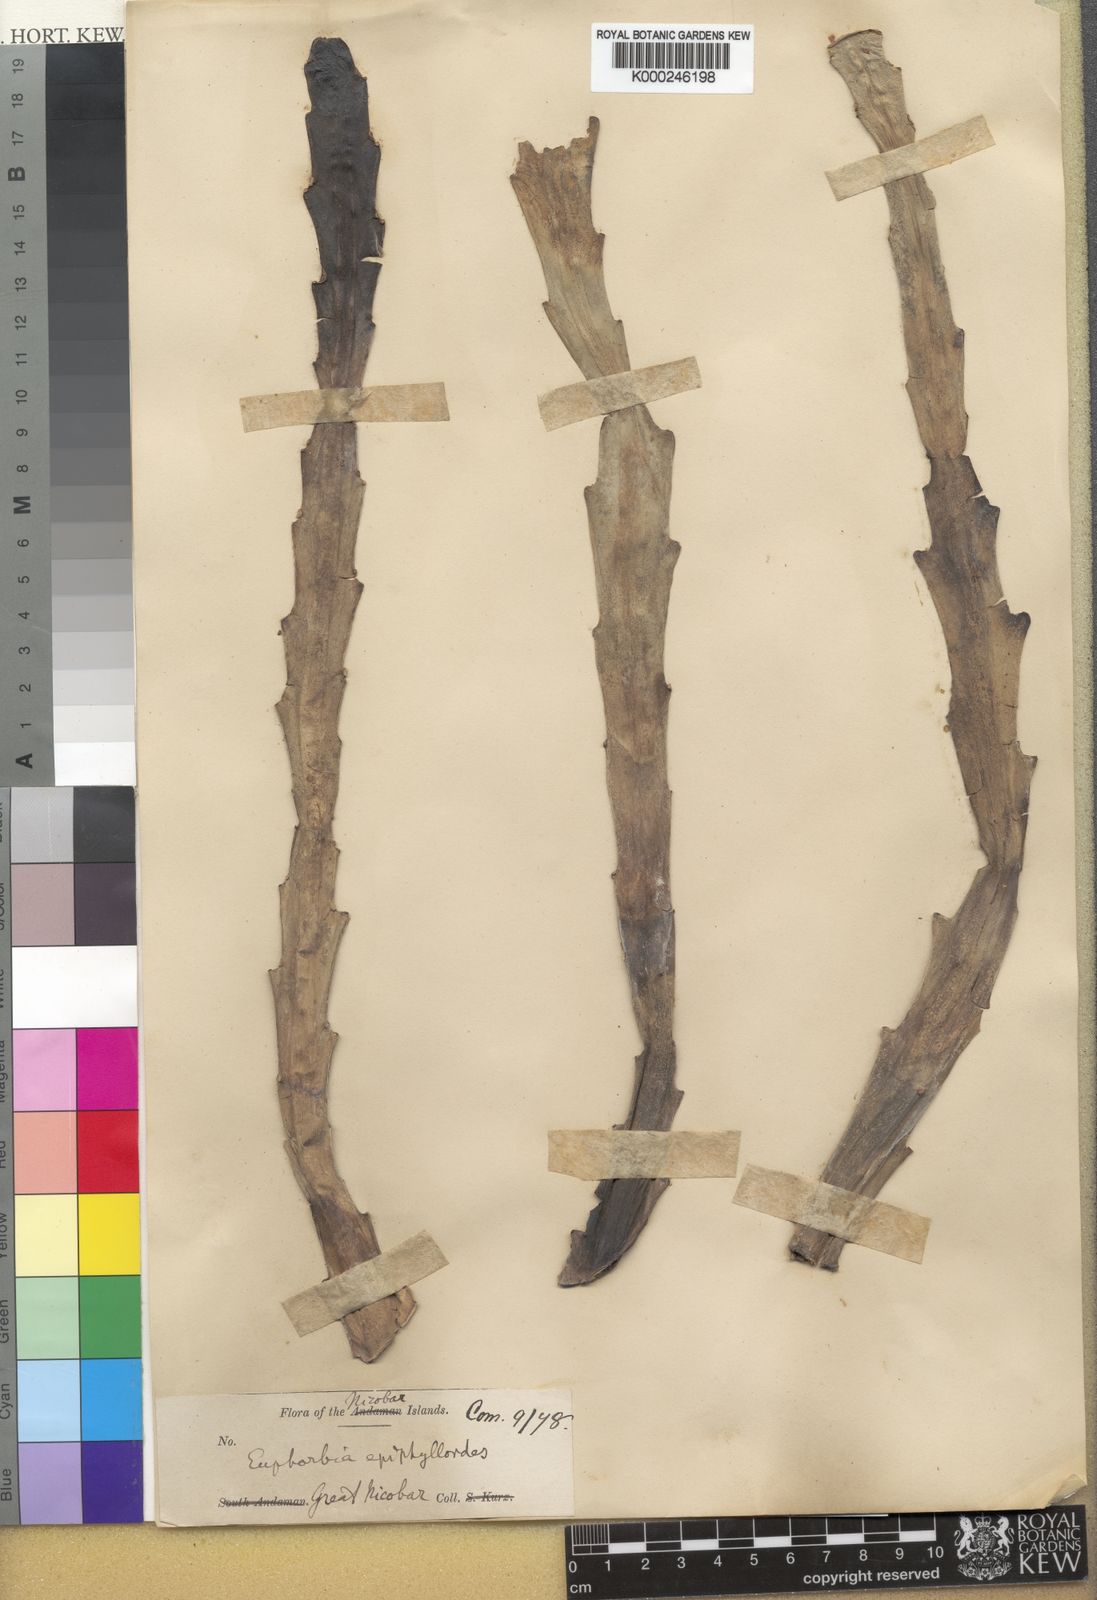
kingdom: Plantae
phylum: Tracheophyta
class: Magnoliopsida
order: Malpighiales
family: Euphorbiaceae
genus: Euphorbia
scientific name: Euphorbia epiphylloides
